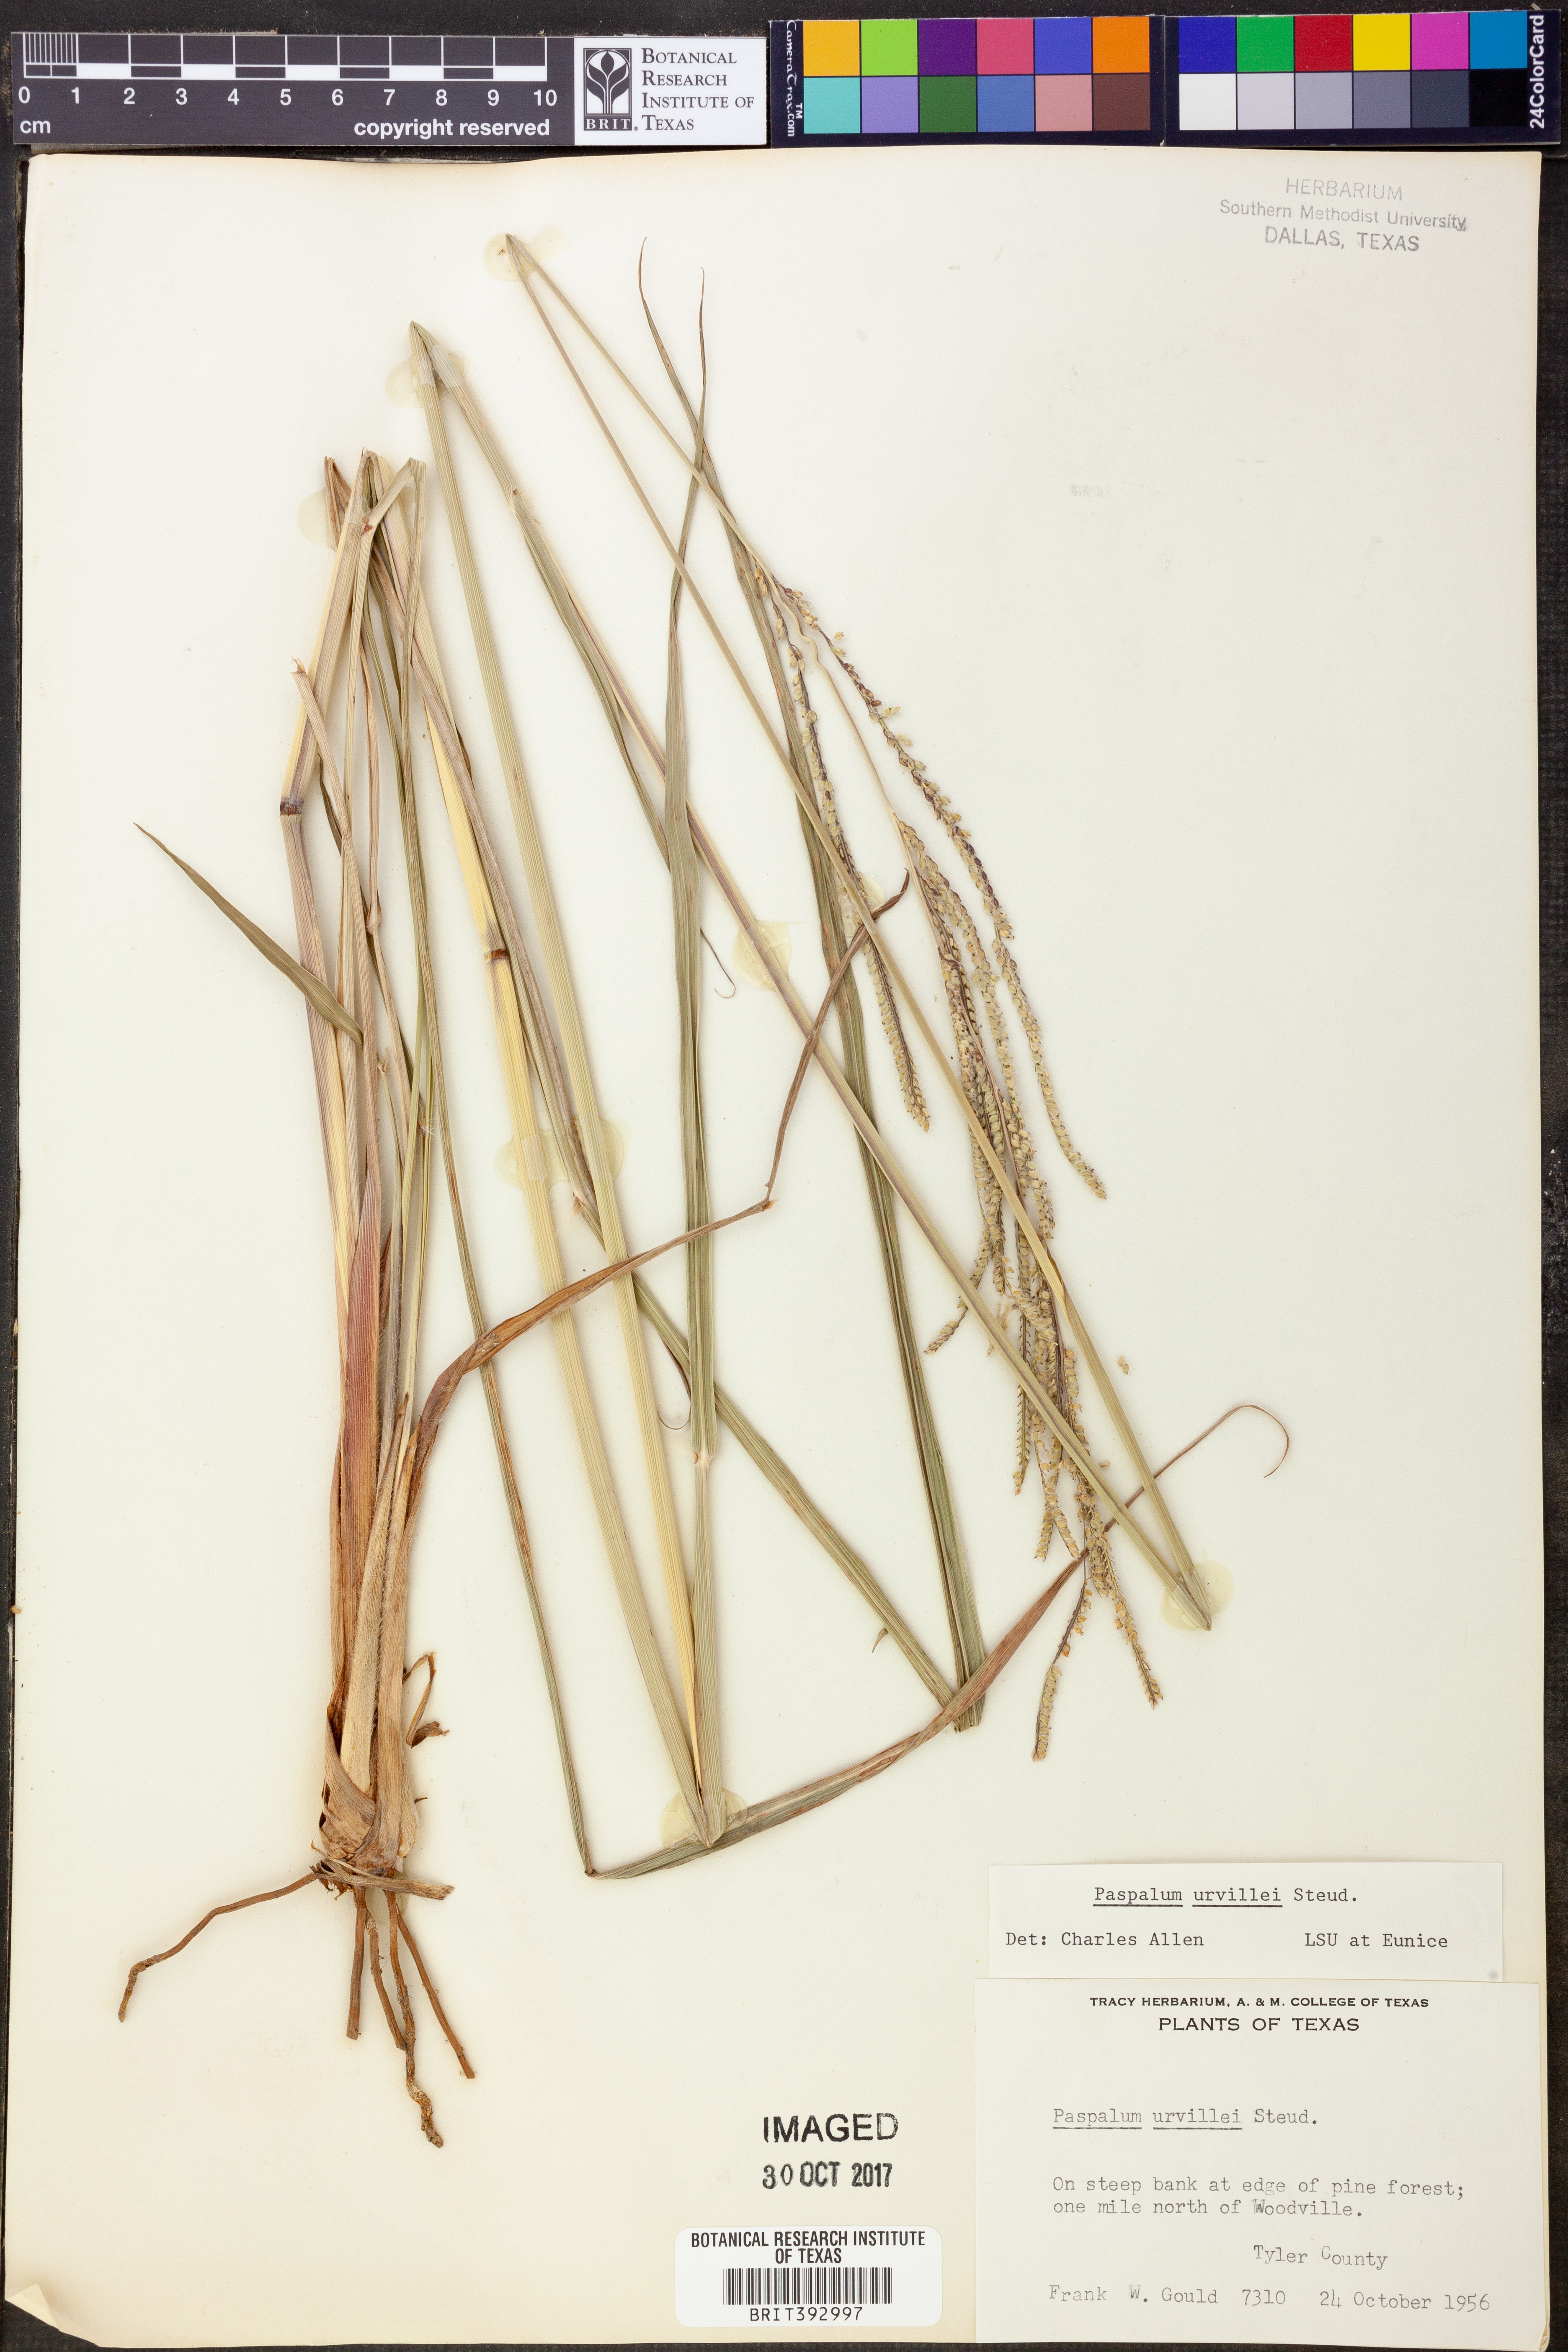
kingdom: Plantae
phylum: Tracheophyta
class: Liliopsida
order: Poales
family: Poaceae
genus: Paspalum
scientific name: Paspalum urvillei
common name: Vasey's grass
